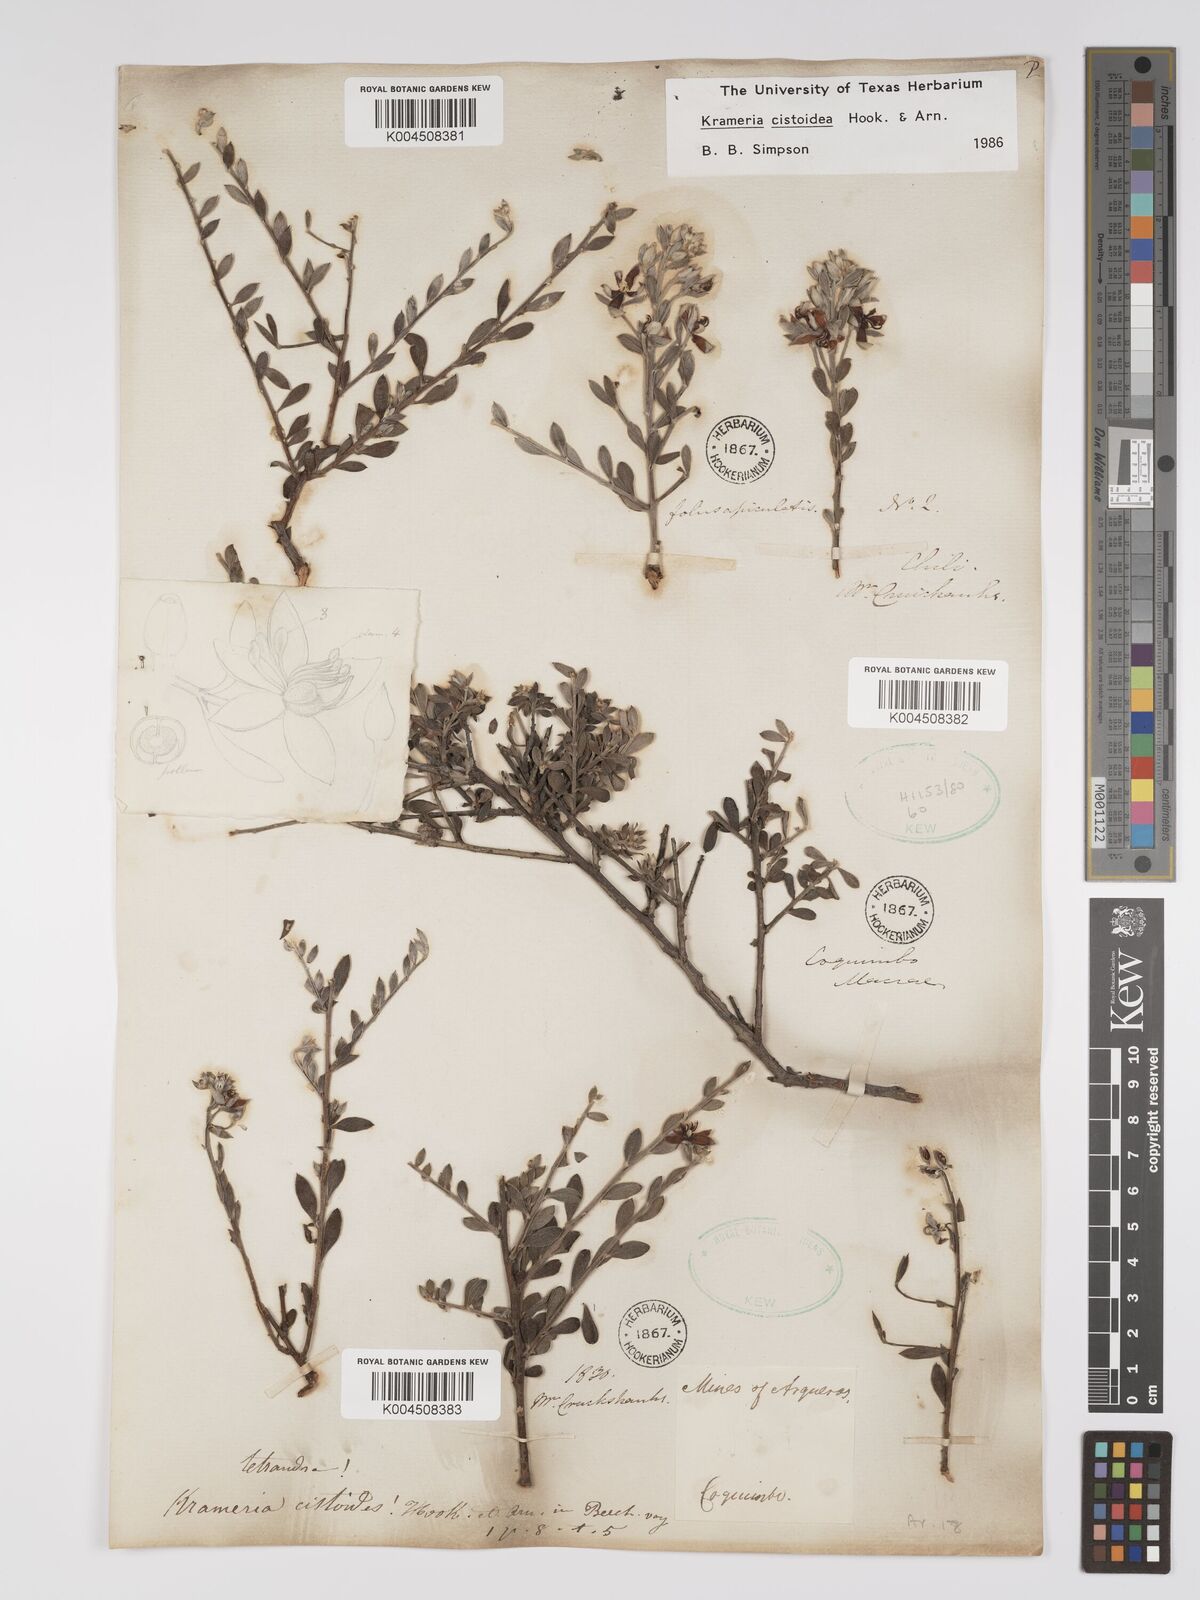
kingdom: Plantae
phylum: Tracheophyta
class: Magnoliopsida
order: Zygophyllales
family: Krameriaceae
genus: Krameria
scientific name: Krameria cistoidea
